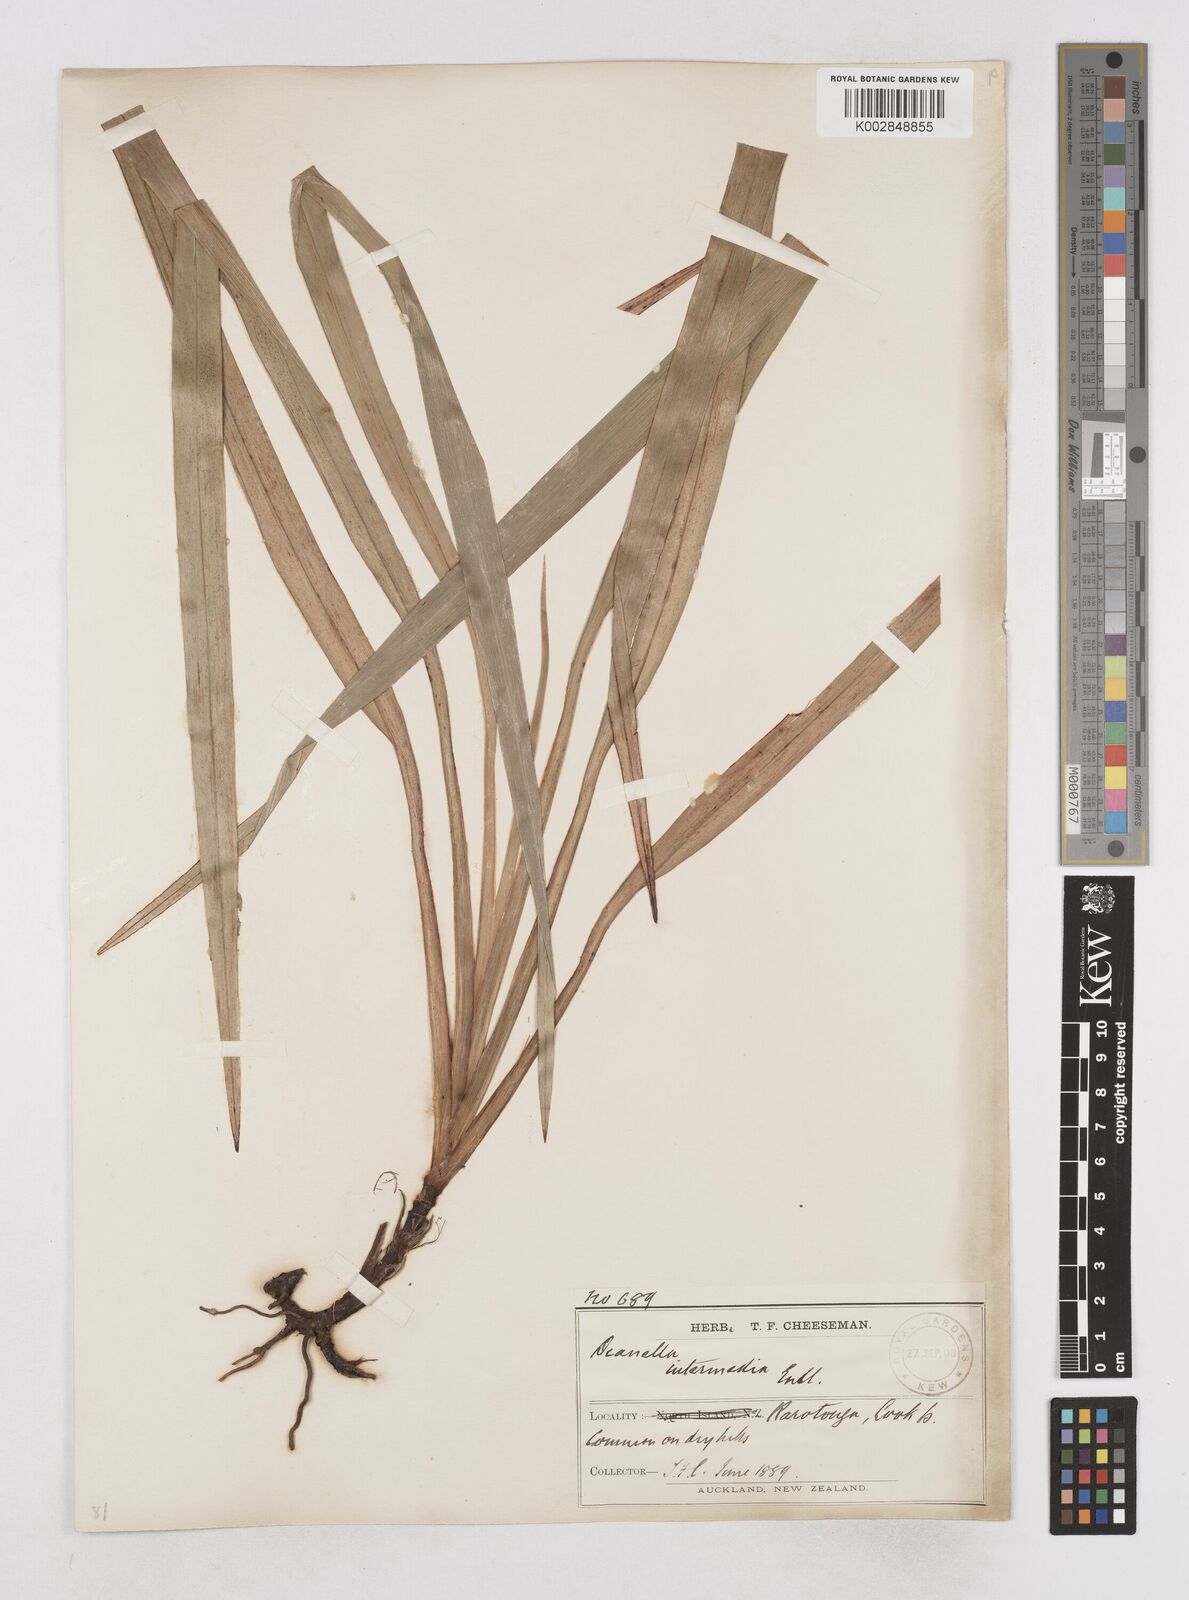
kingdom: Plantae
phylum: Tracheophyta
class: Liliopsida
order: Asparagales
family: Asphodelaceae
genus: Dianella
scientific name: Dianella intermedia
